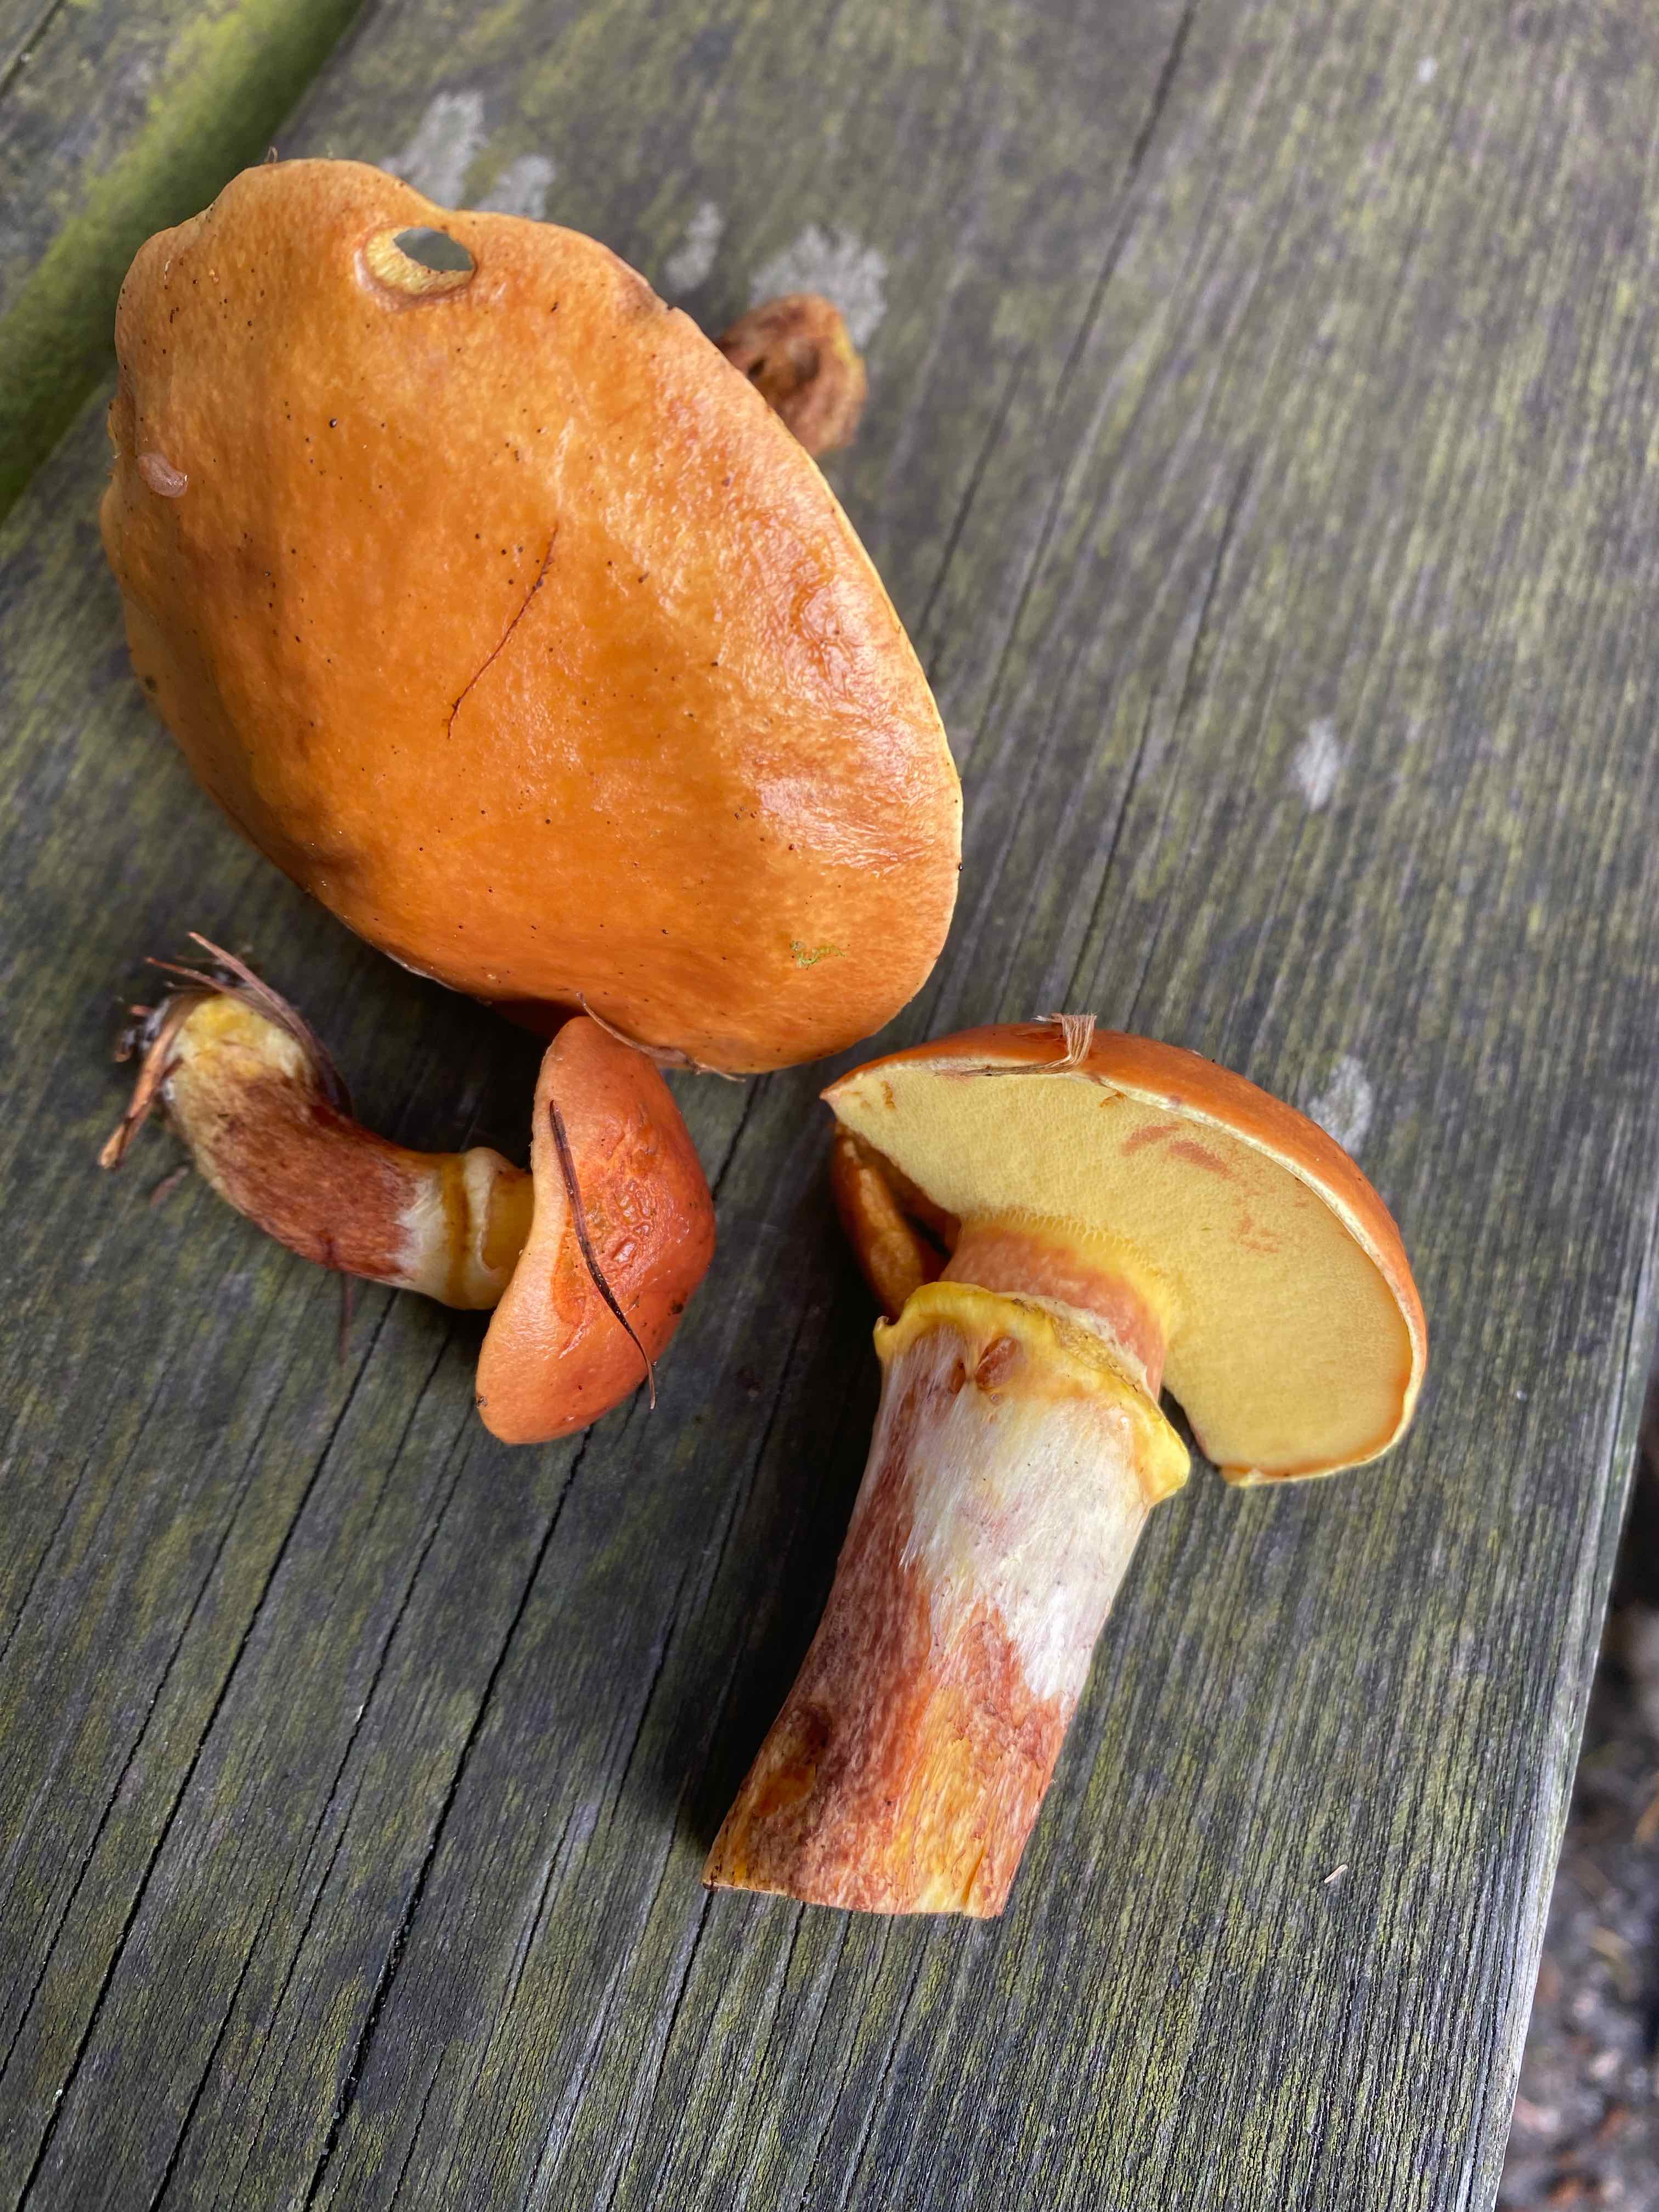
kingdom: Fungi
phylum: Basidiomycota
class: Agaricomycetes
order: Boletales
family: Suillaceae
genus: Suillus
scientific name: Suillus grevillei
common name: lærke-slimrørhat
